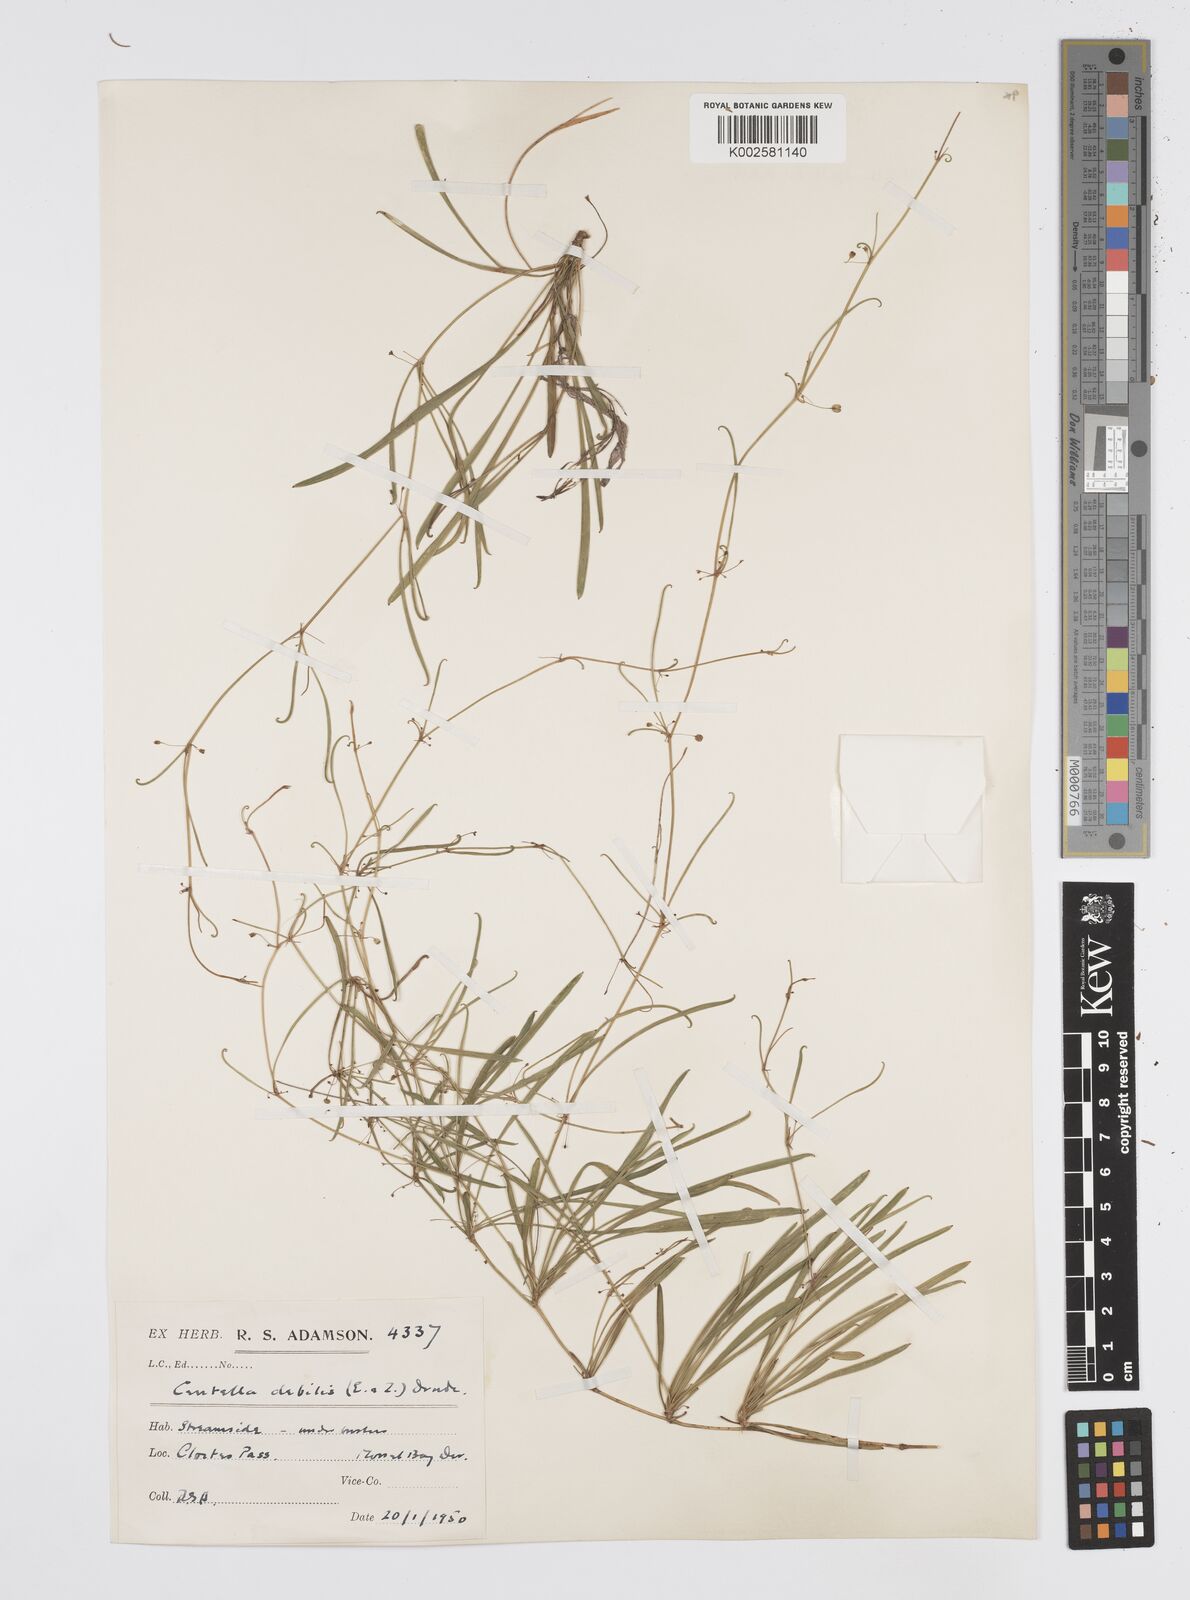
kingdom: Plantae
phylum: Tracheophyta
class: Magnoliopsida
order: Apiales
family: Apiaceae
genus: Centella
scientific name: Centella debilis
